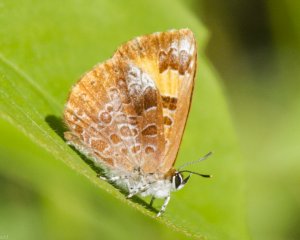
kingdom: Animalia
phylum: Arthropoda
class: Insecta
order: Lepidoptera
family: Lycaenidae
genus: Feniseca
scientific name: Feniseca tarquinius
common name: Harvester
